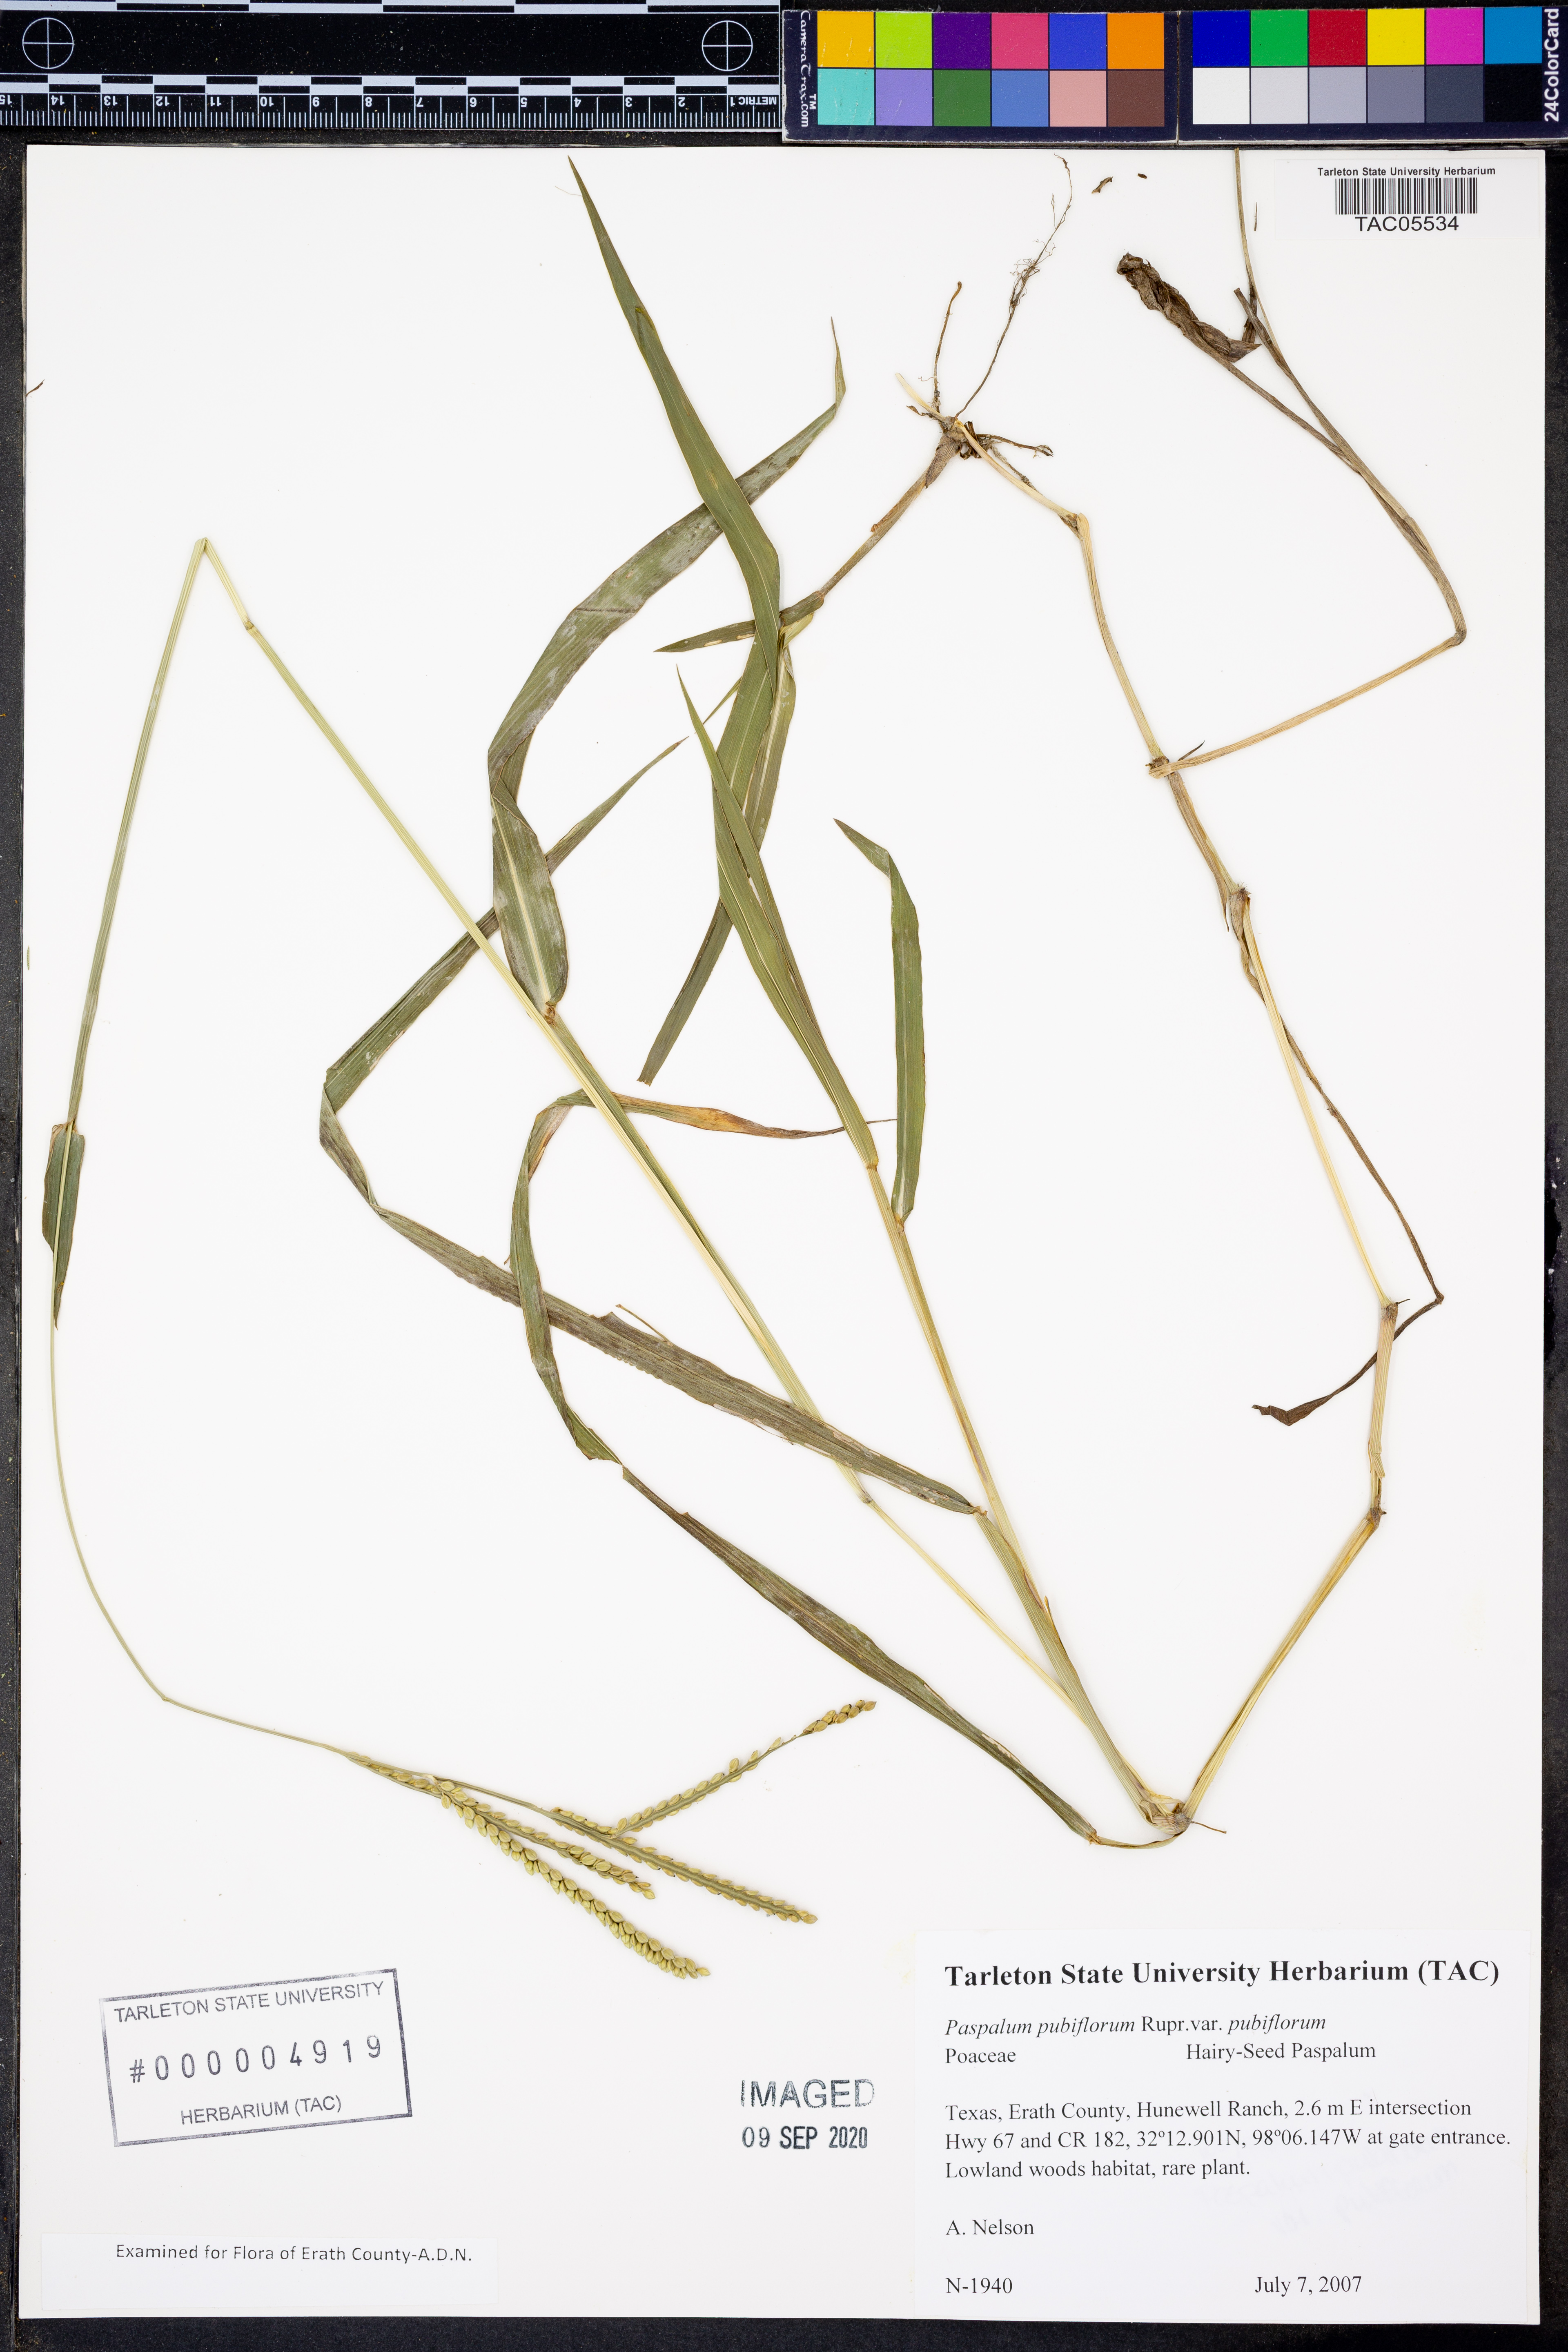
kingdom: Plantae
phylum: Tracheophyta
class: Liliopsida
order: Poales
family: Poaceae
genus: Paspalum
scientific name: Paspalum pubiflorum
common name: Hairy-seed paspalum
